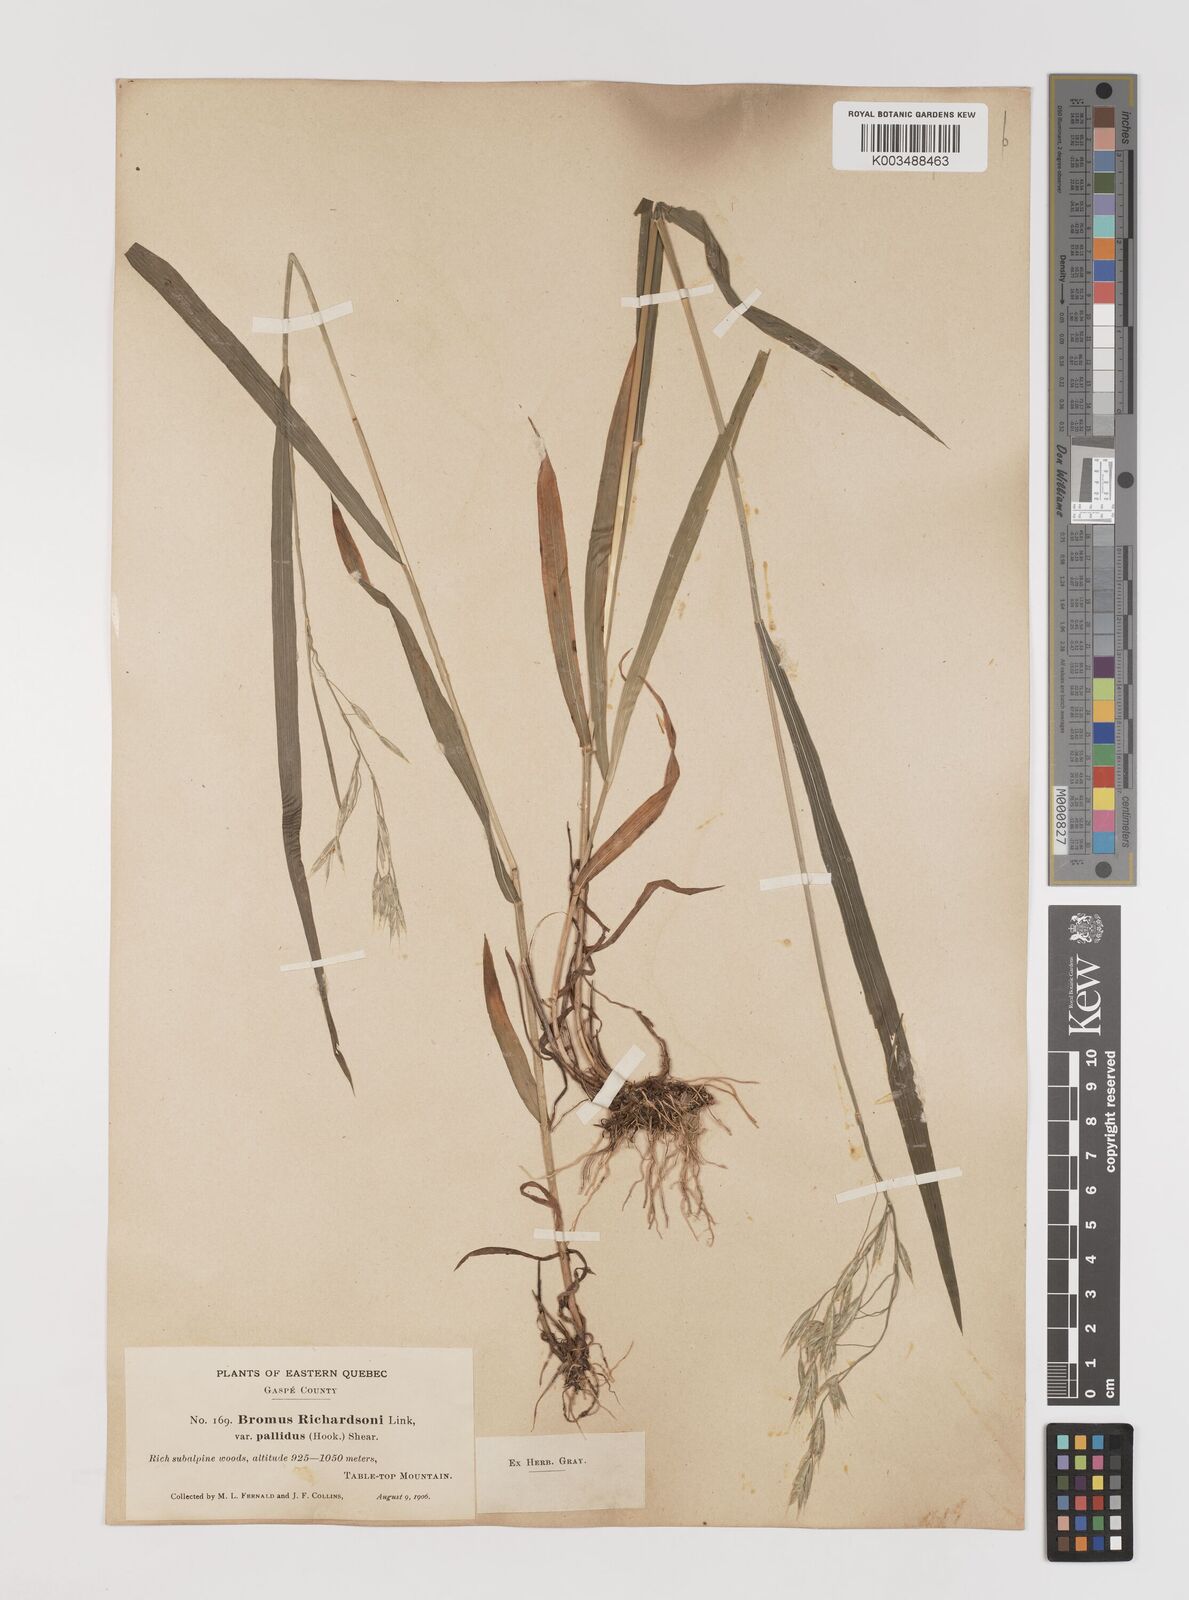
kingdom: Plantae
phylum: Tracheophyta
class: Liliopsida
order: Poales
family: Poaceae
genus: Bromus
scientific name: Bromus richardsonii
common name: Richardson's brome
